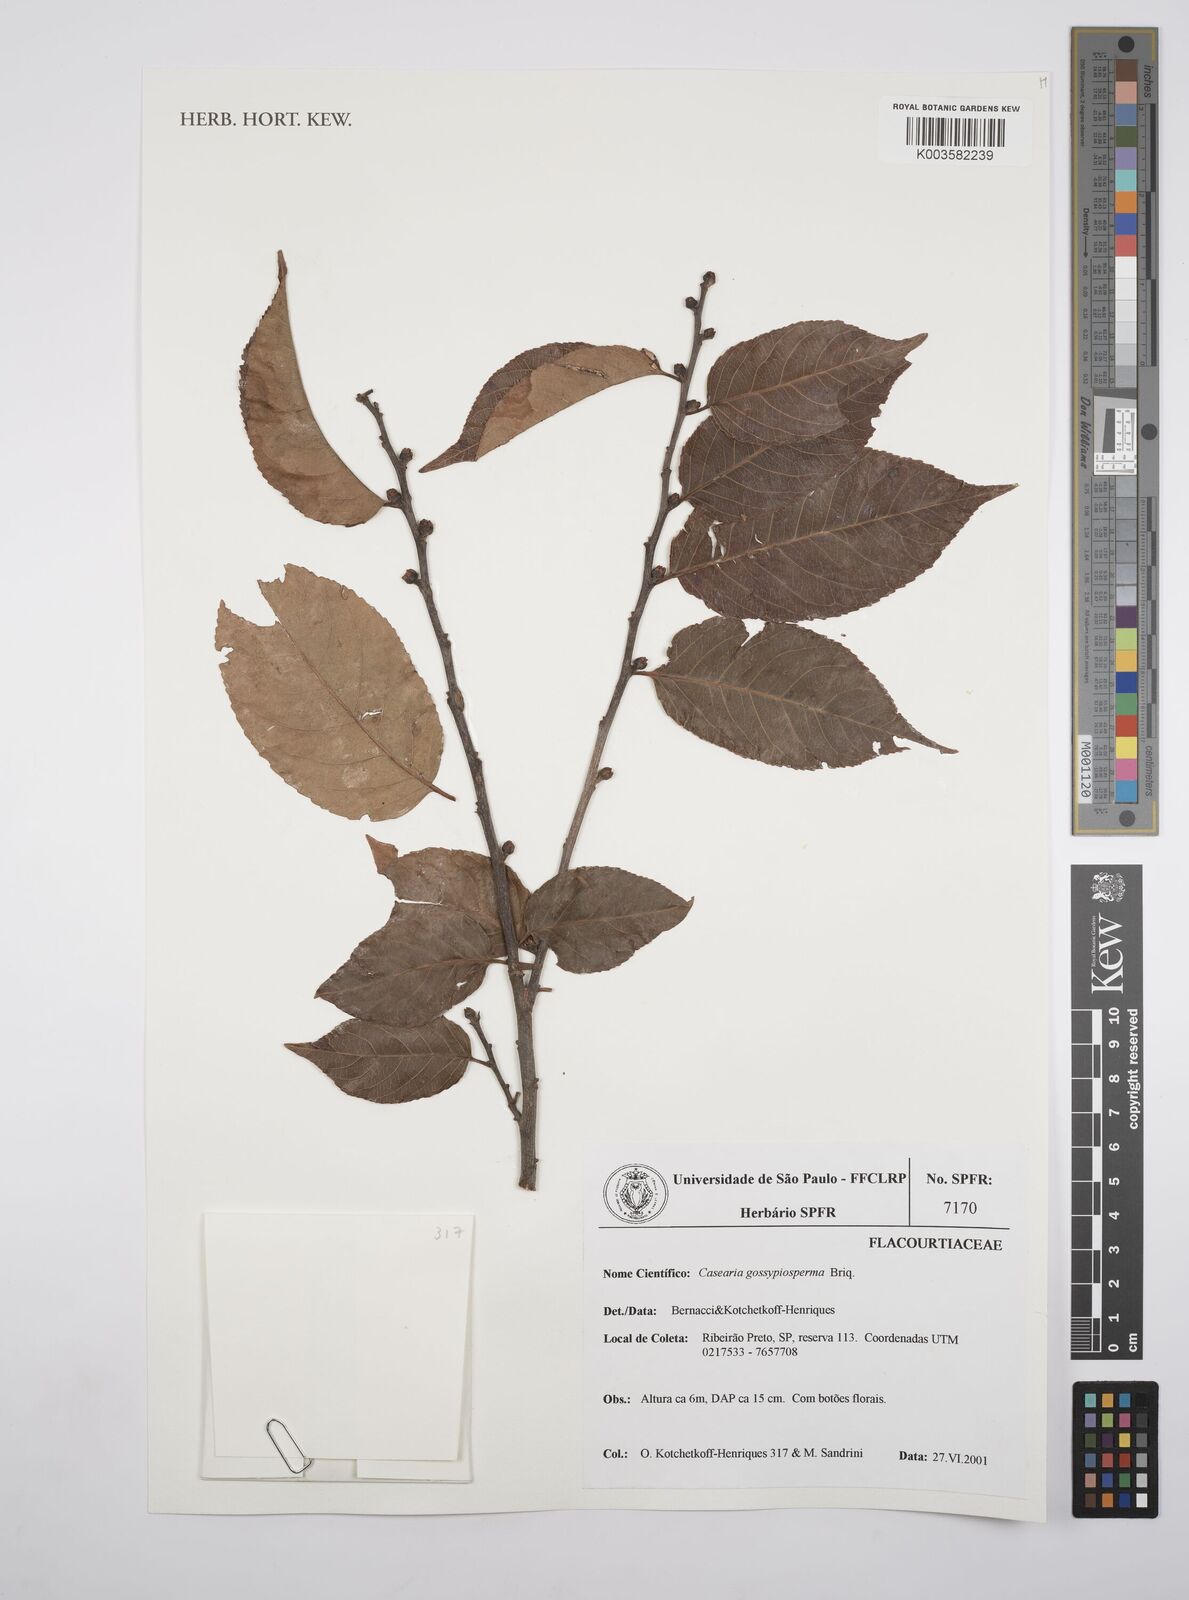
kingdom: Plantae
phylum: Tracheophyta
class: Magnoliopsida
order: Malpighiales
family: Salicaceae
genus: Casearia
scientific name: Casearia gossypiosperma
